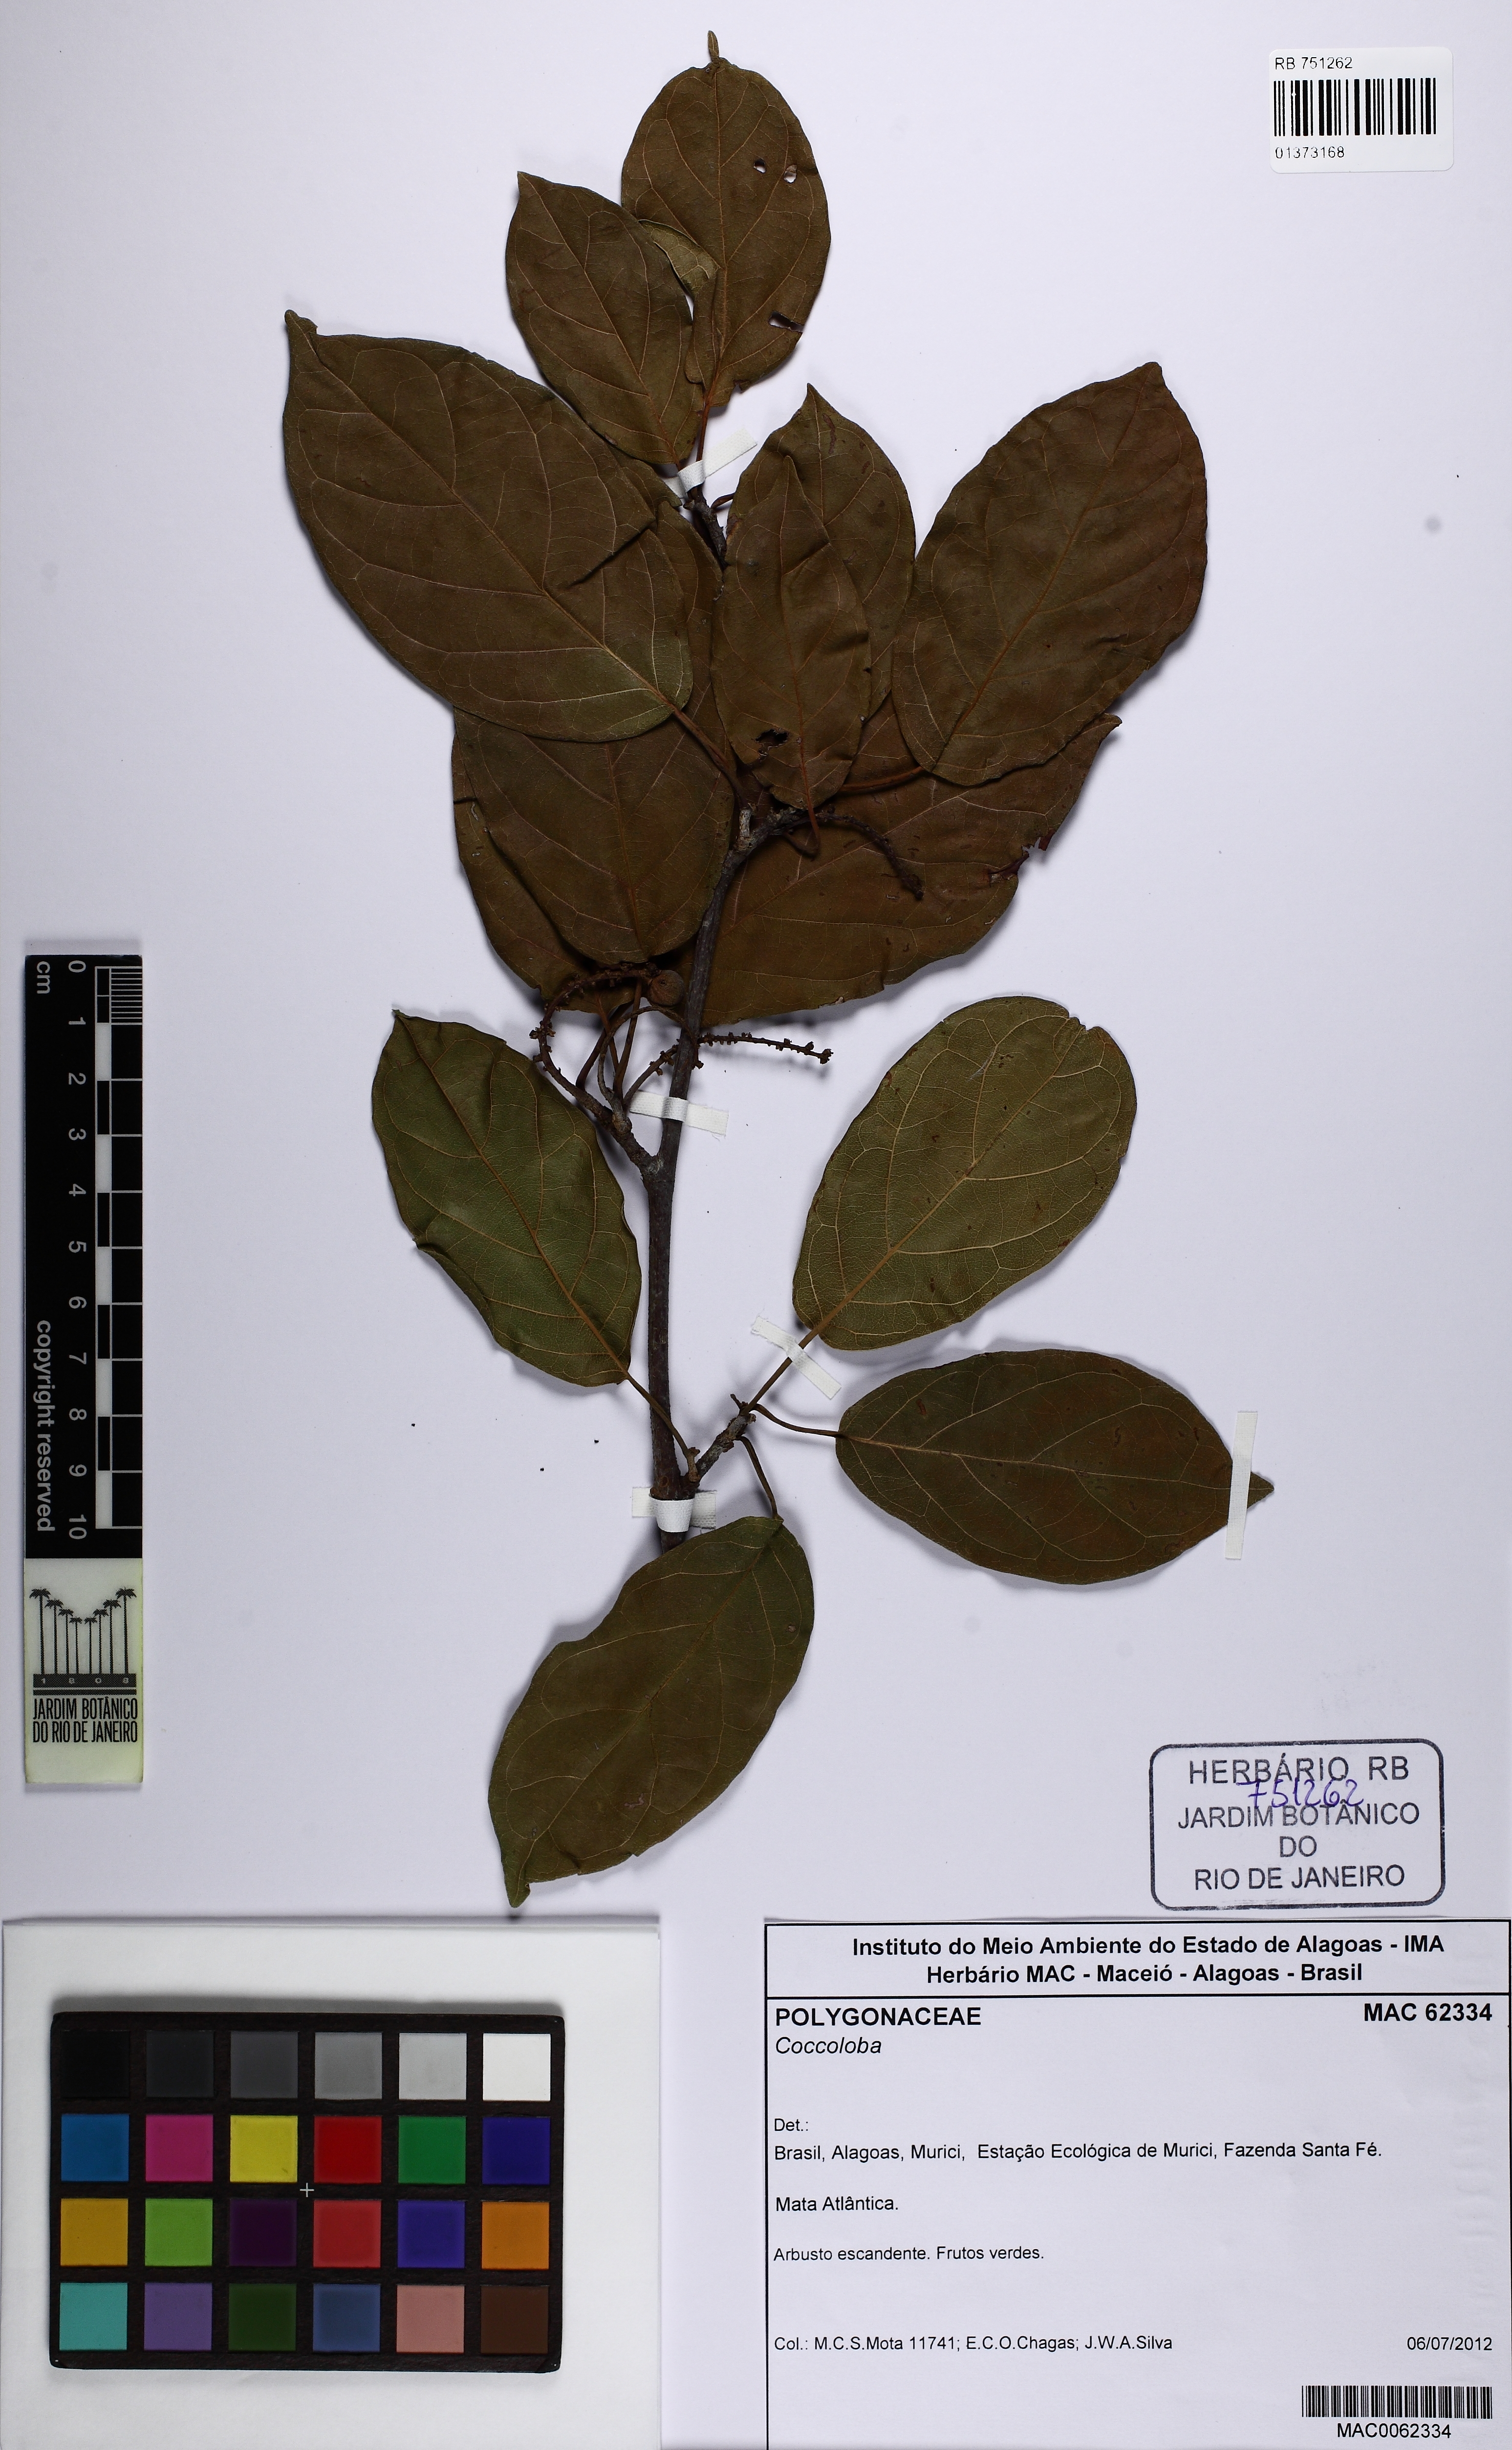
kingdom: Plantae
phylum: Tracheophyta
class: Magnoliopsida
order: Caryophyllales
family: Polygonaceae
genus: Coccoloba
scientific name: Coccoloba
